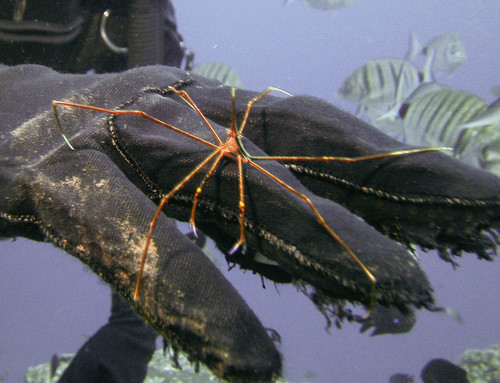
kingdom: Animalia
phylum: Arthropoda
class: Malacostraca
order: Decapoda
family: Inachoididae
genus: Stenorhynchus
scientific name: Stenorhynchus lanceolatus
